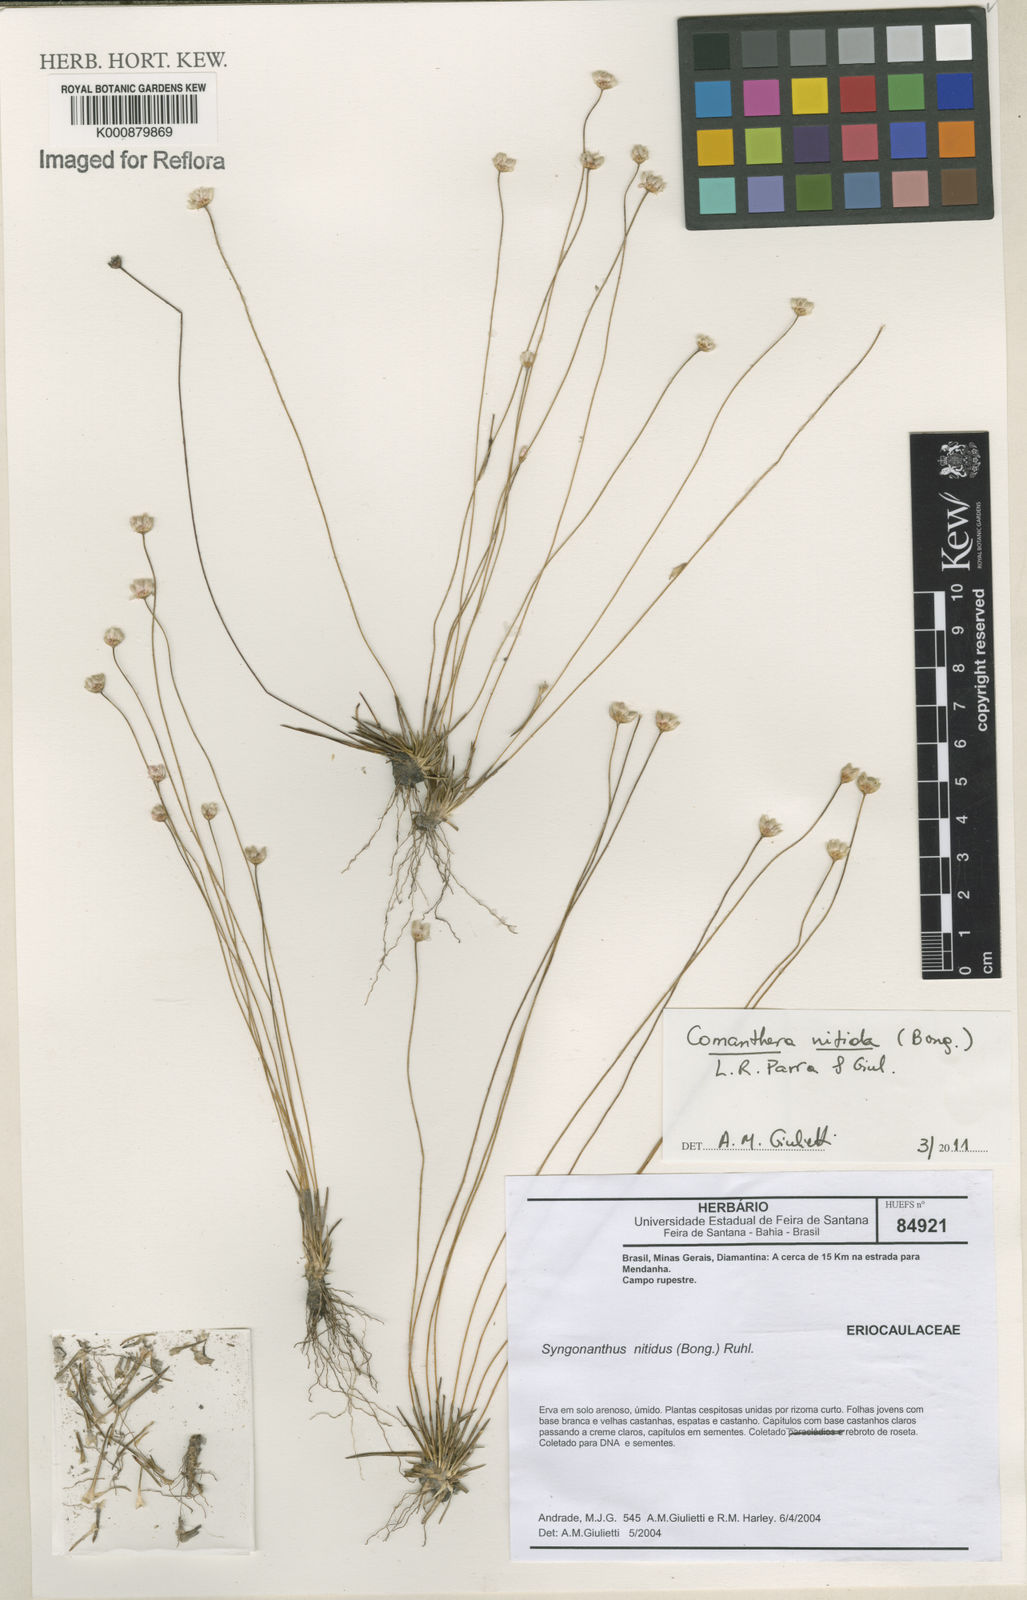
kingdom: Plantae
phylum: Tracheophyta
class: Liliopsida
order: Poales
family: Eriocaulaceae
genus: Comanthera
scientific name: Comanthera nitida
